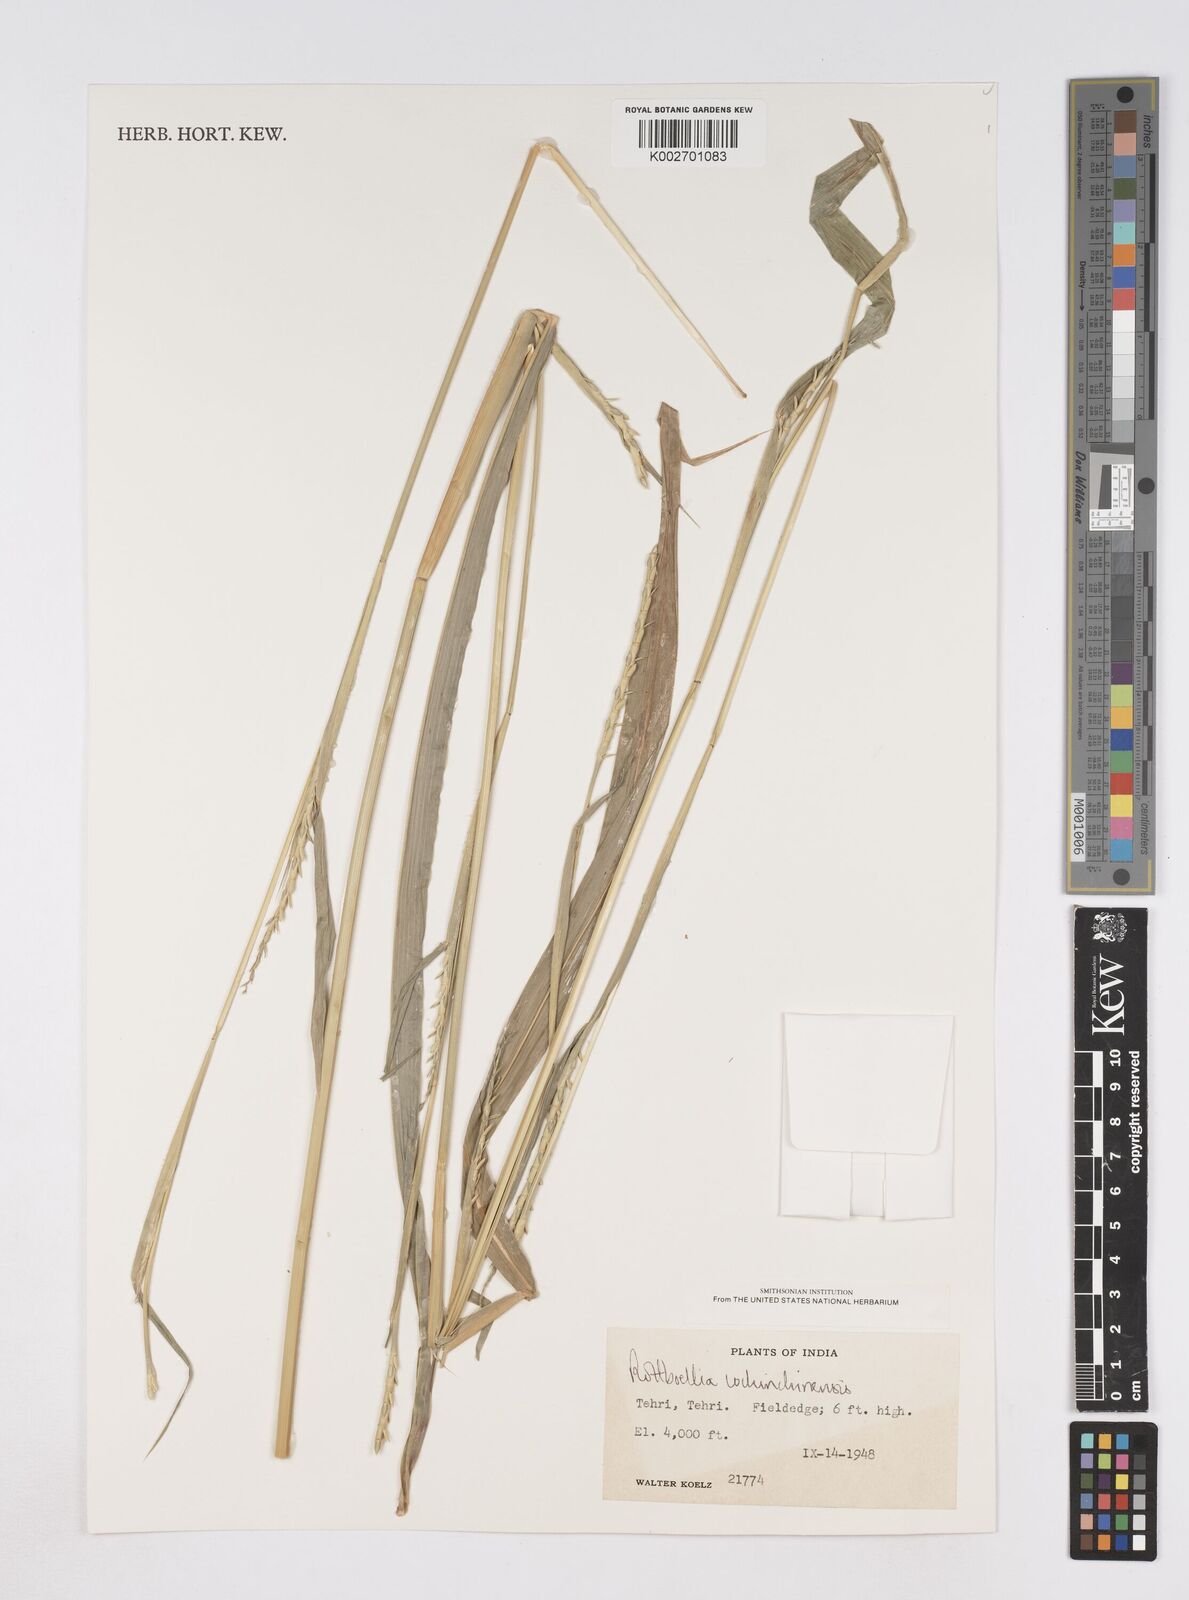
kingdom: Plantae
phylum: Tracheophyta
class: Liliopsida
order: Poales
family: Poaceae
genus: Ophiuros
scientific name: Ophiuros exaltatus
